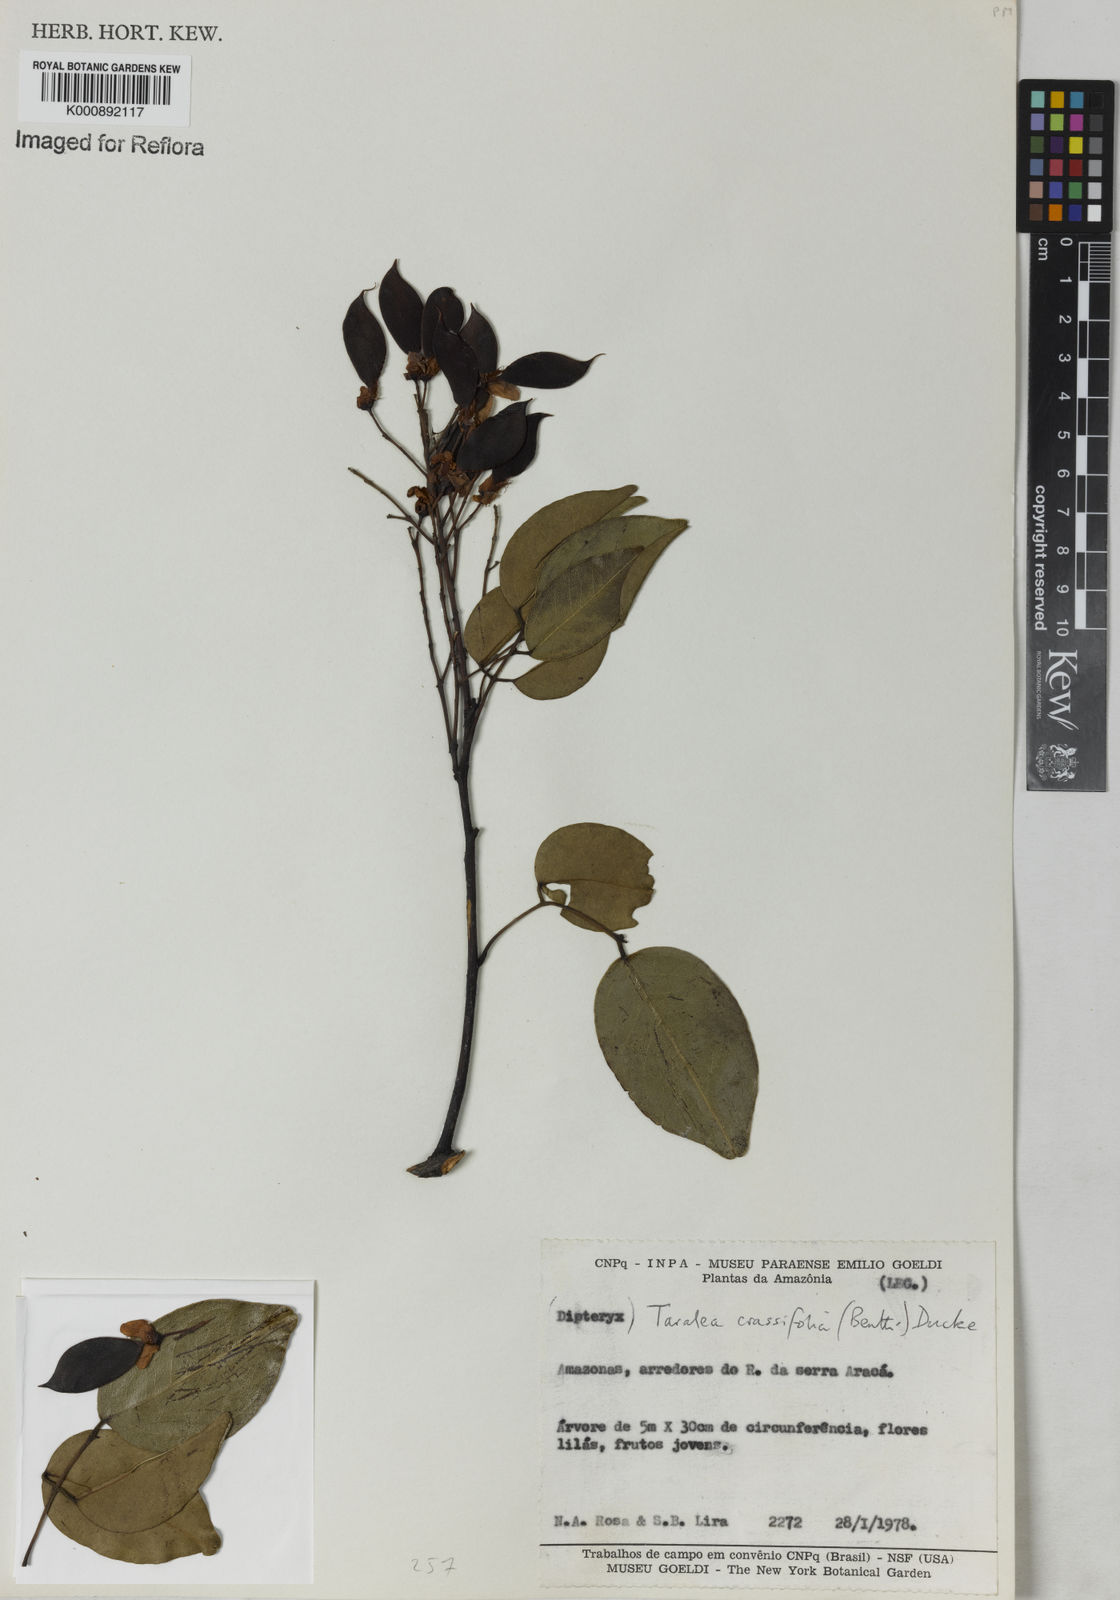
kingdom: Plantae
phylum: Tracheophyta
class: Magnoliopsida
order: Fabales
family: Fabaceae
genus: Taralea
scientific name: Taralea crassifolia
